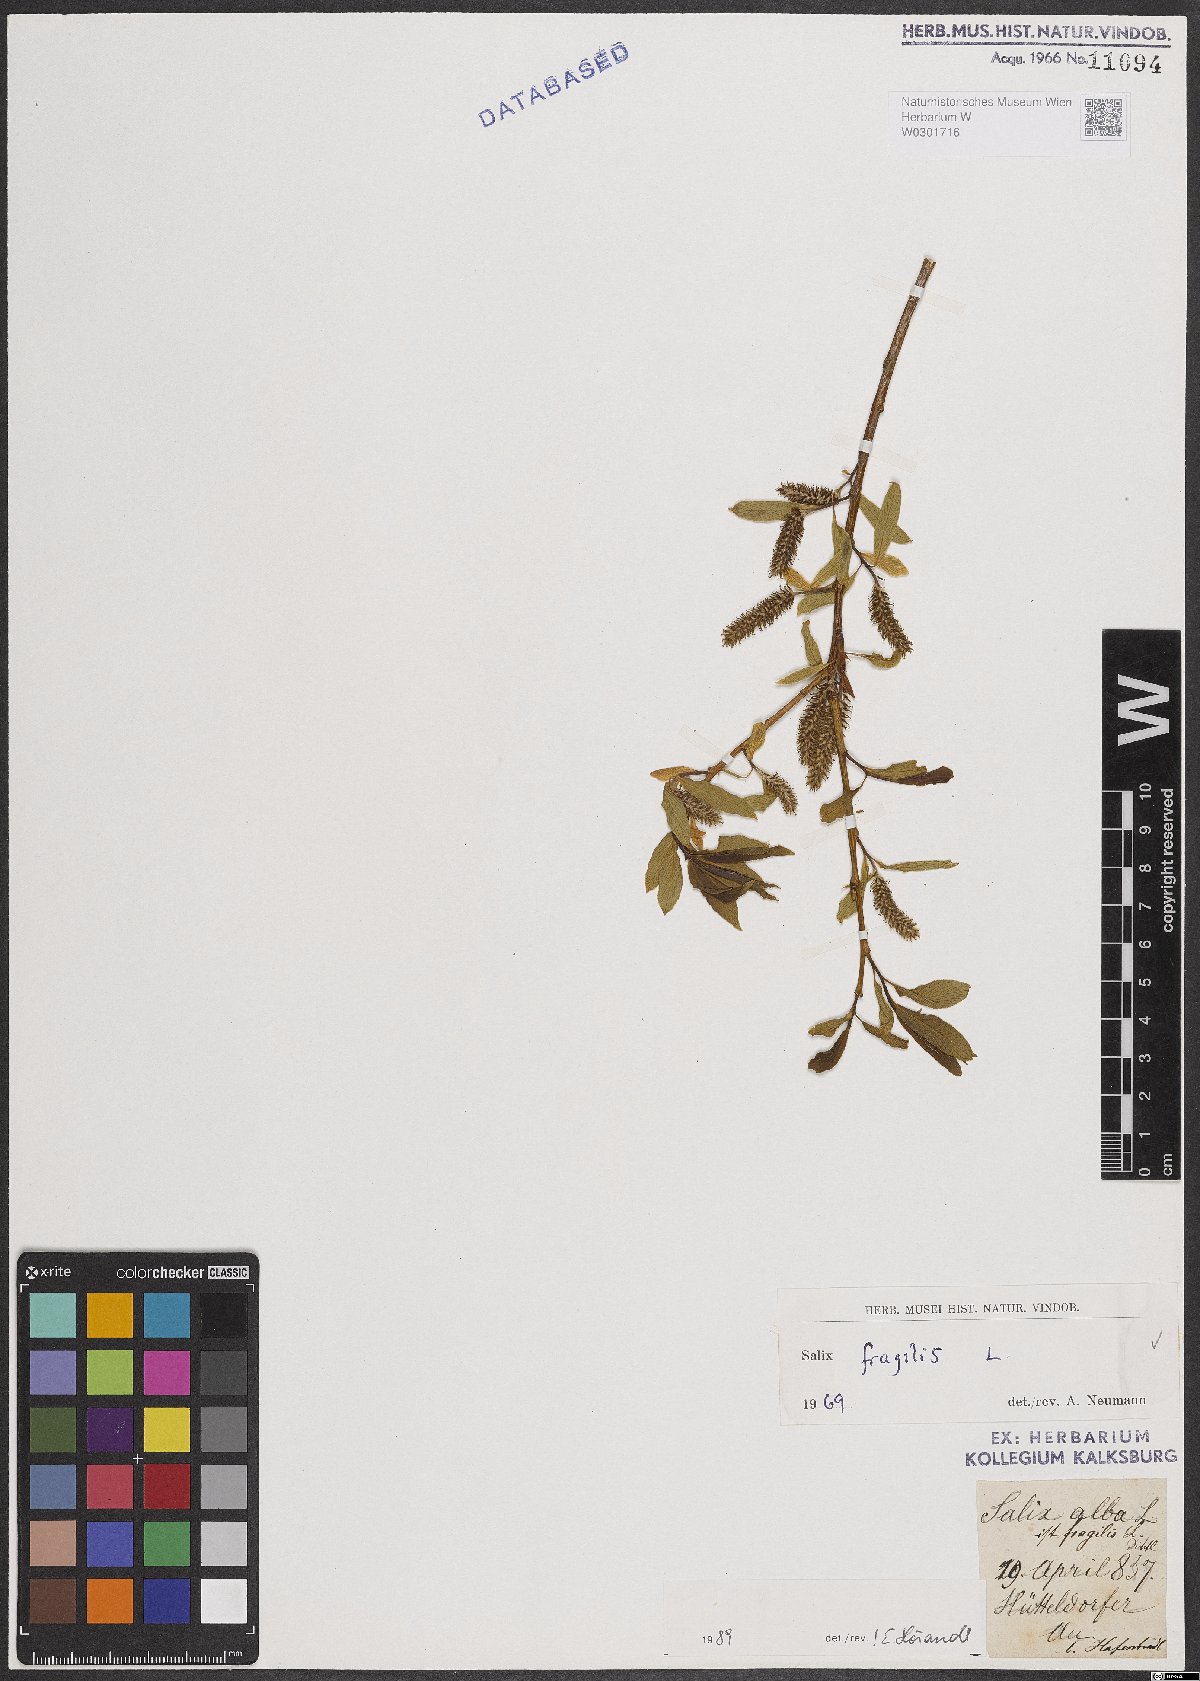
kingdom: Plantae
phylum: Tracheophyta
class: Magnoliopsida
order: Malpighiales
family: Salicaceae
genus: Salix
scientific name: Salix fragilis
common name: Crack willow
